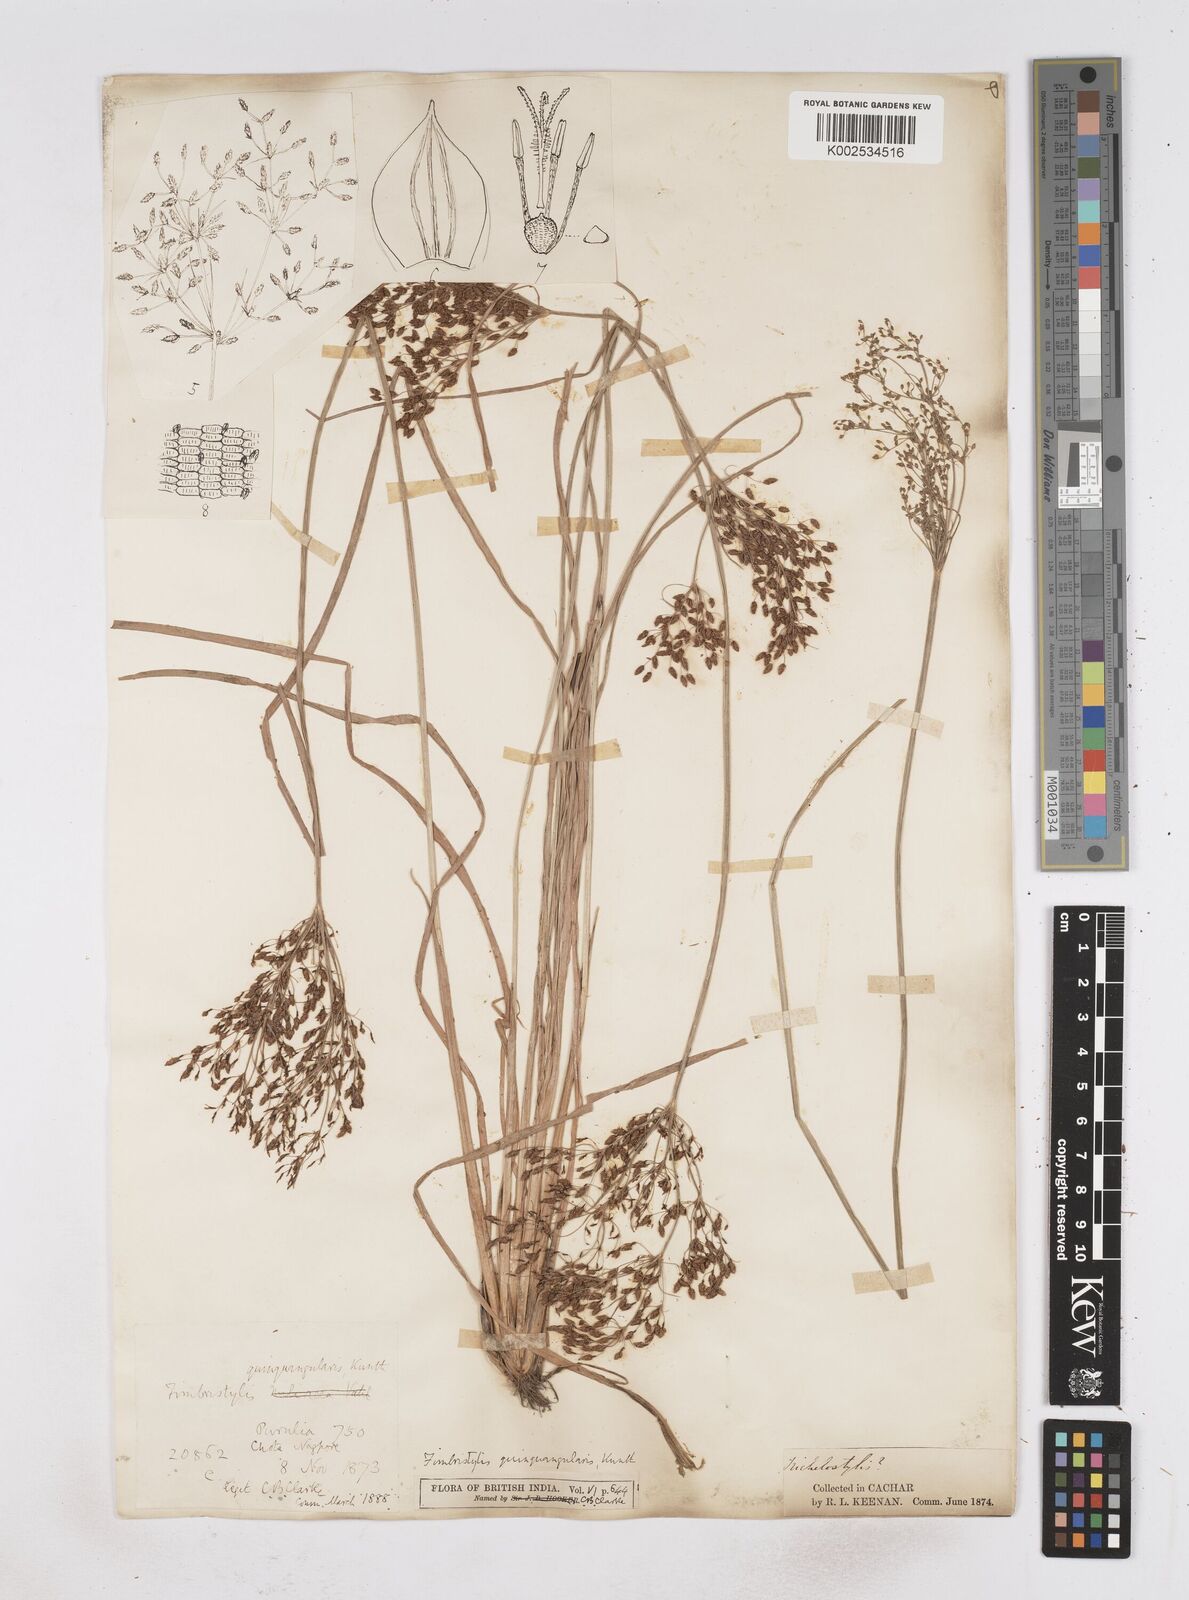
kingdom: Plantae
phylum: Tracheophyta
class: Liliopsida
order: Poales
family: Cyperaceae
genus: Fimbristylis
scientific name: Fimbristylis quinquangularis
